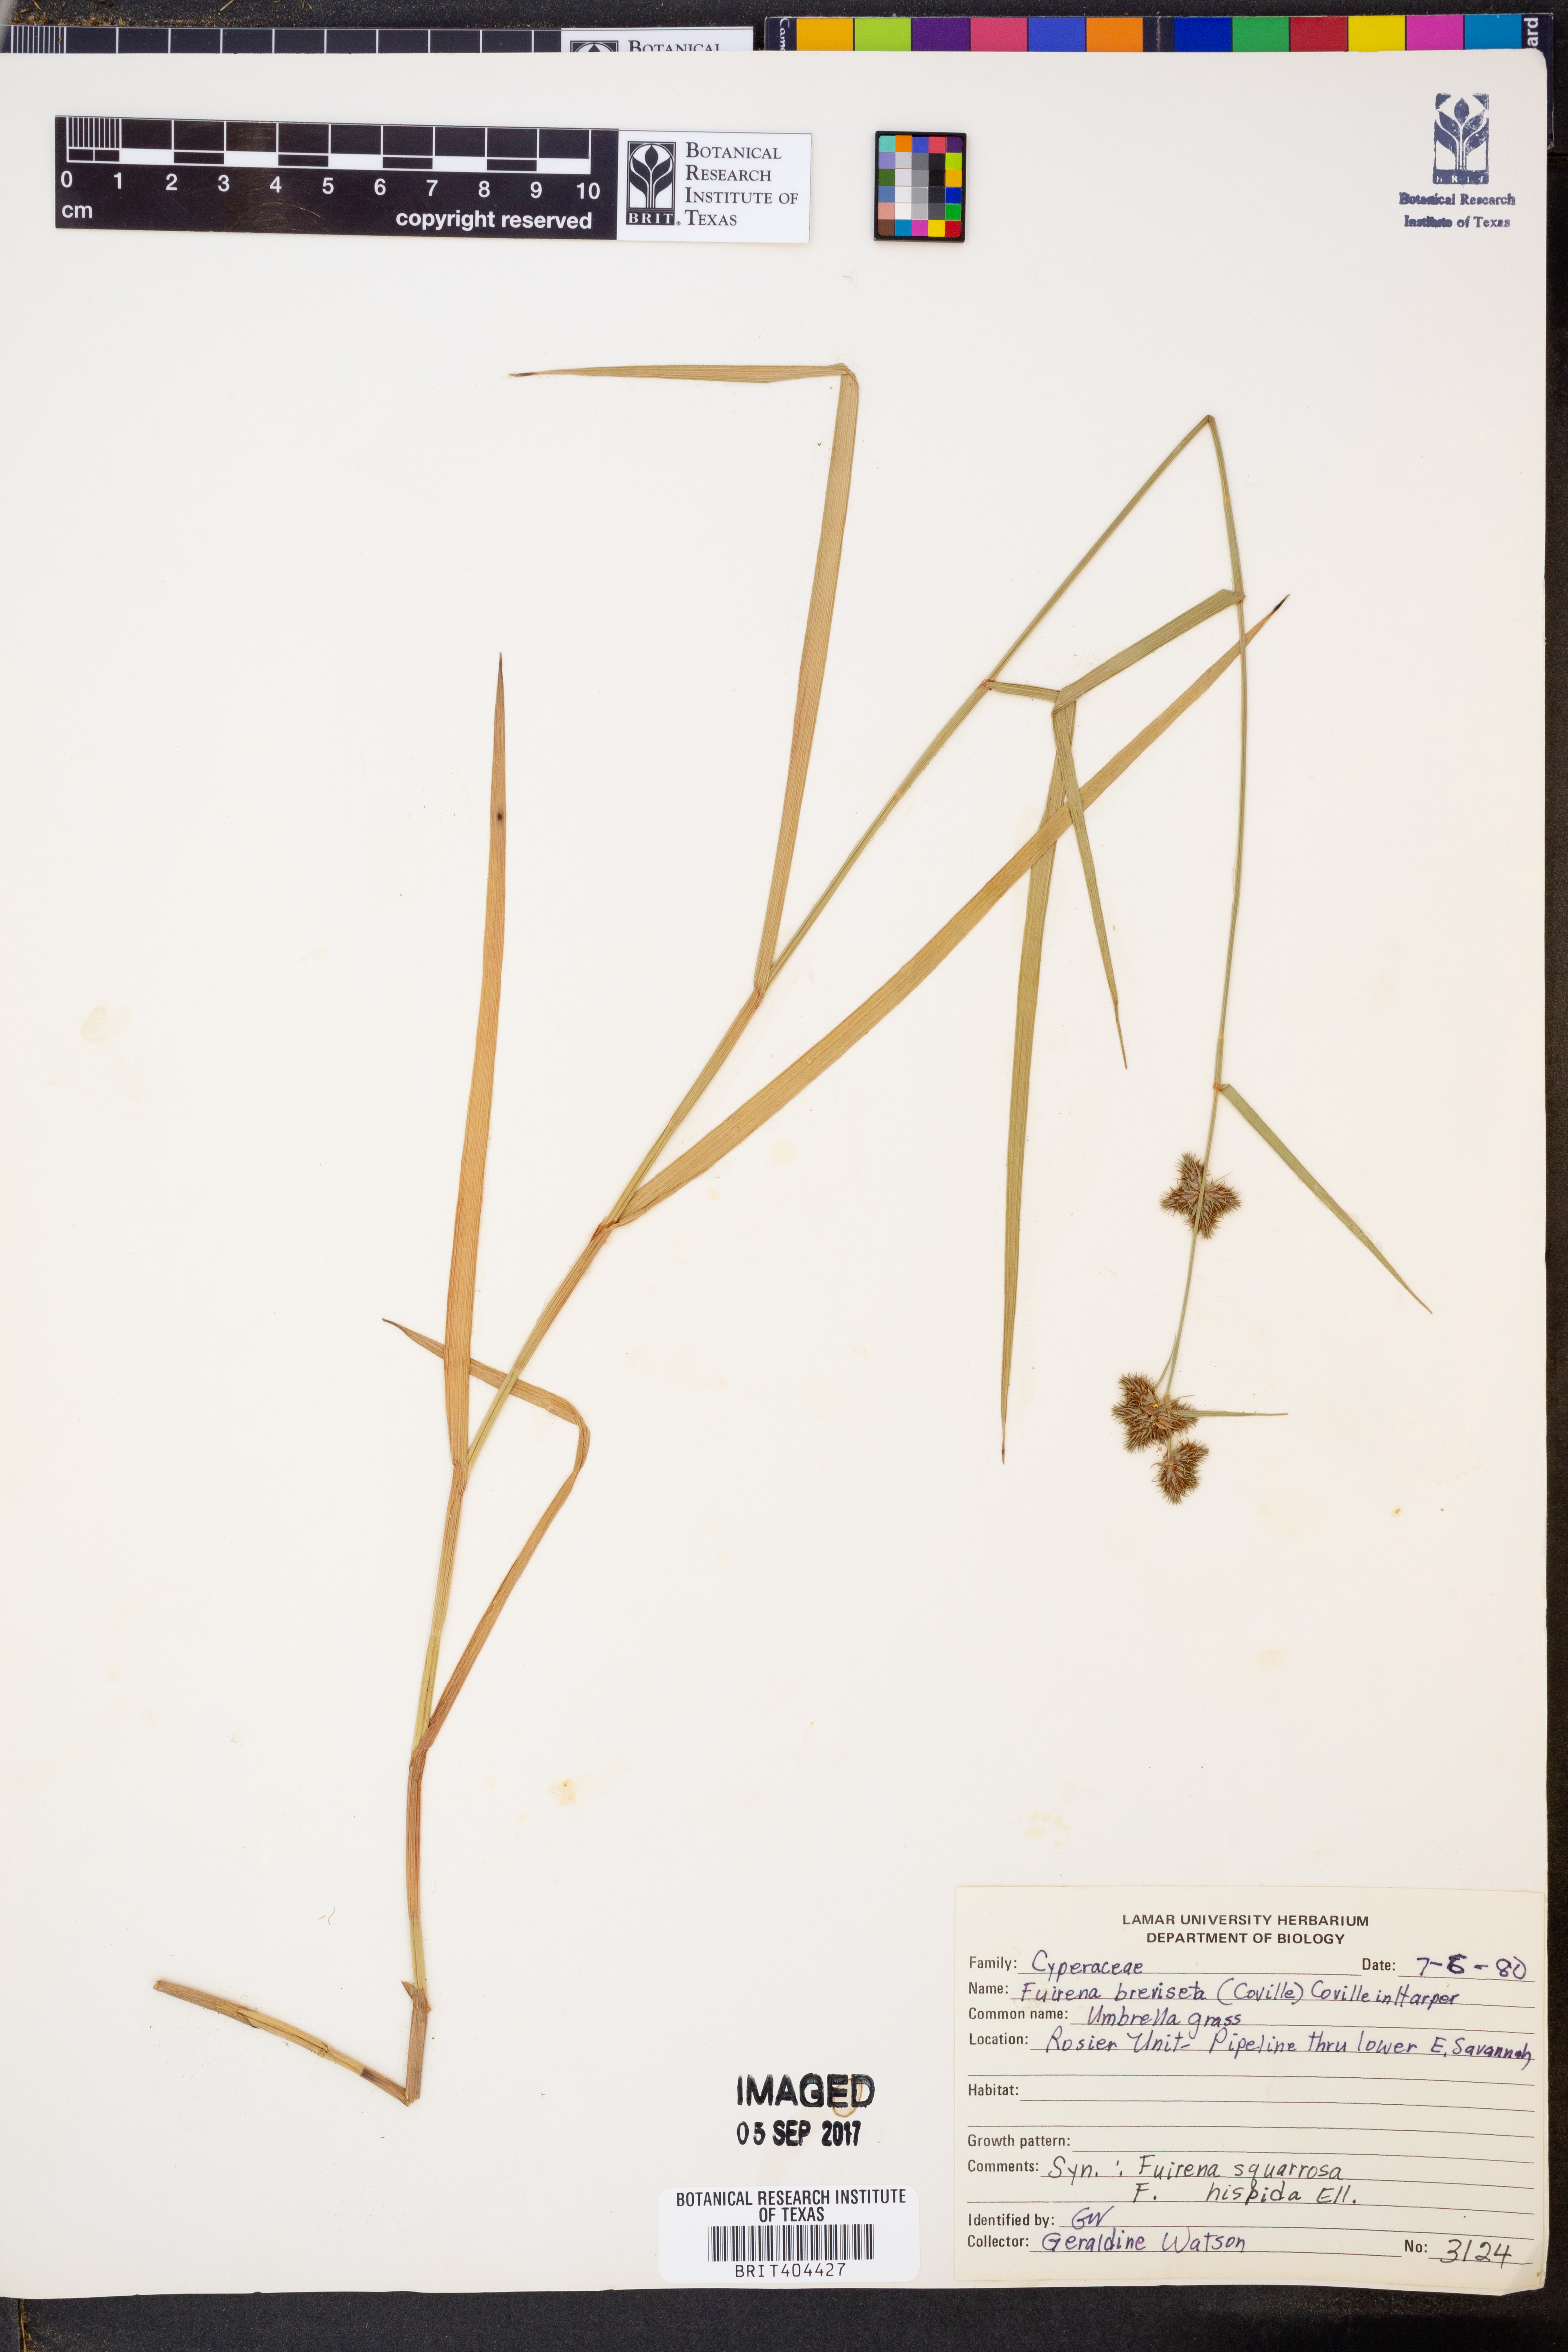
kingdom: Plantae
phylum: Tracheophyta
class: Liliopsida
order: Poales
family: Cyperaceae
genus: Fuirena
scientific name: Fuirena breviseta
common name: Saltmarsh umbrella sedge
